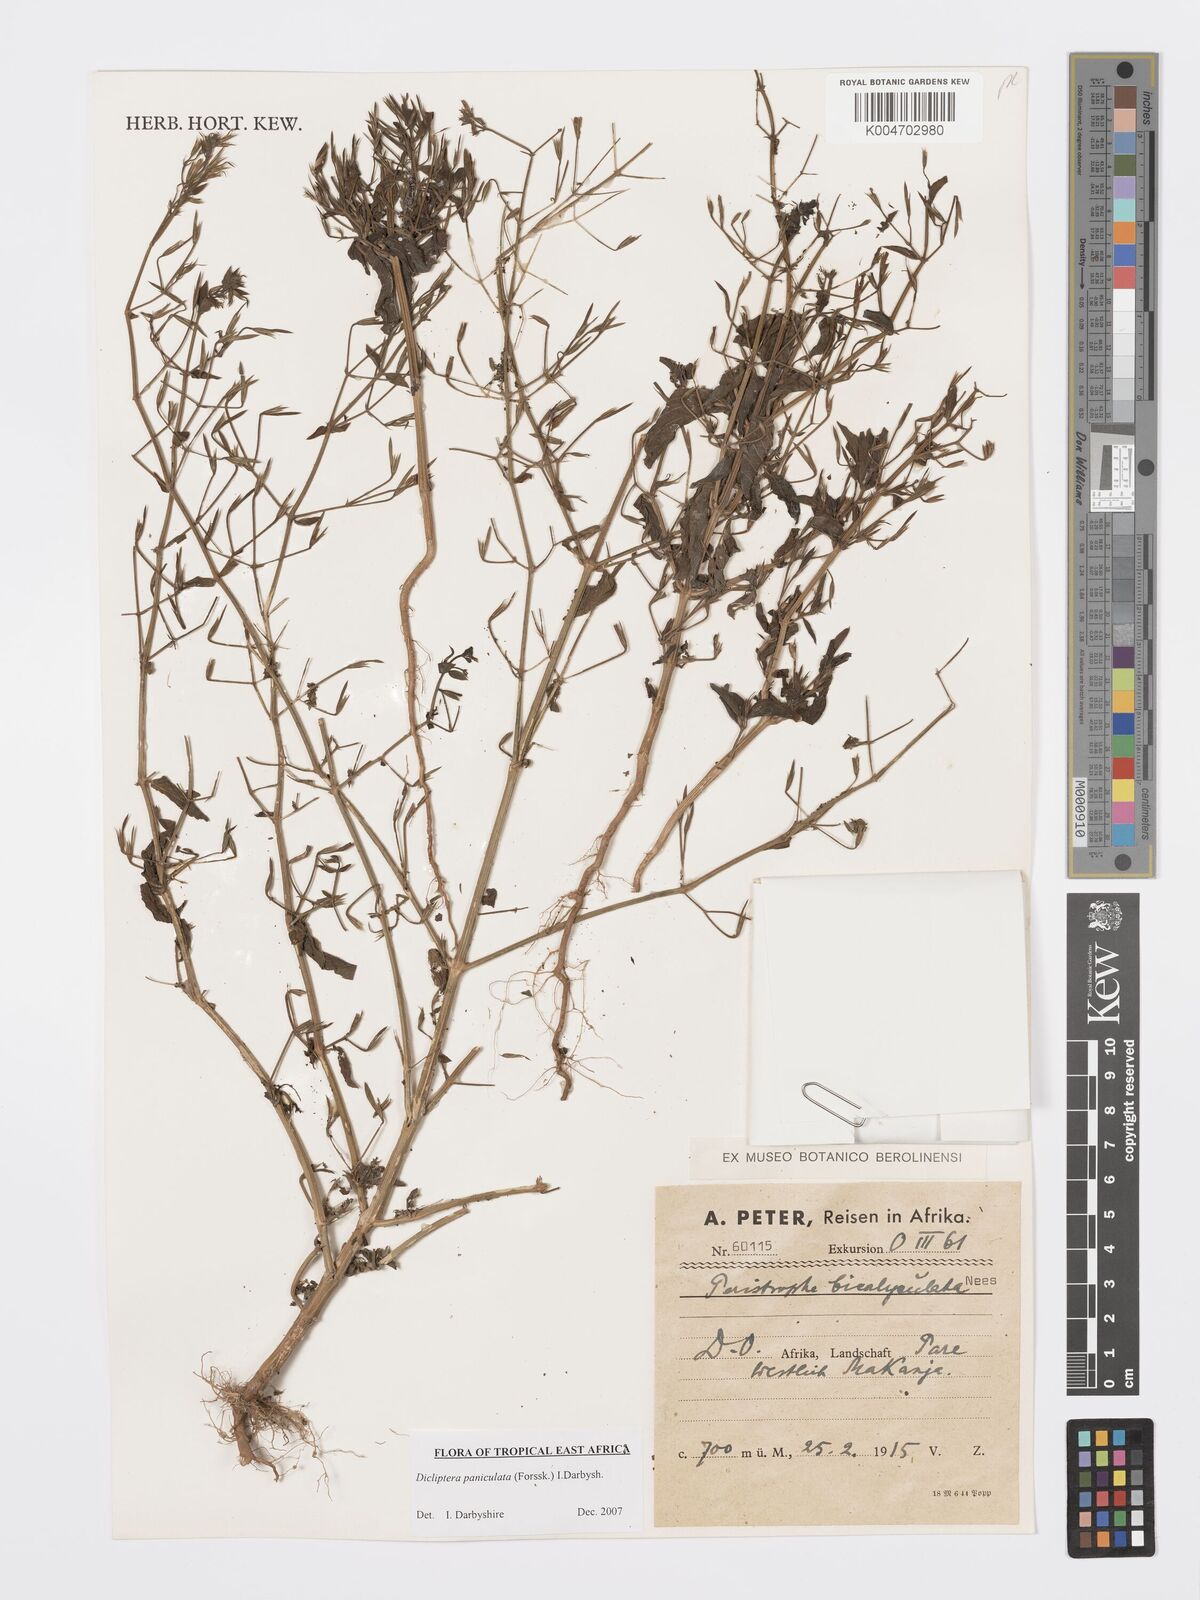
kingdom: Plantae
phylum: Tracheophyta
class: Magnoliopsida
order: Lamiales
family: Acanthaceae
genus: Dicliptera
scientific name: Dicliptera paniculata
